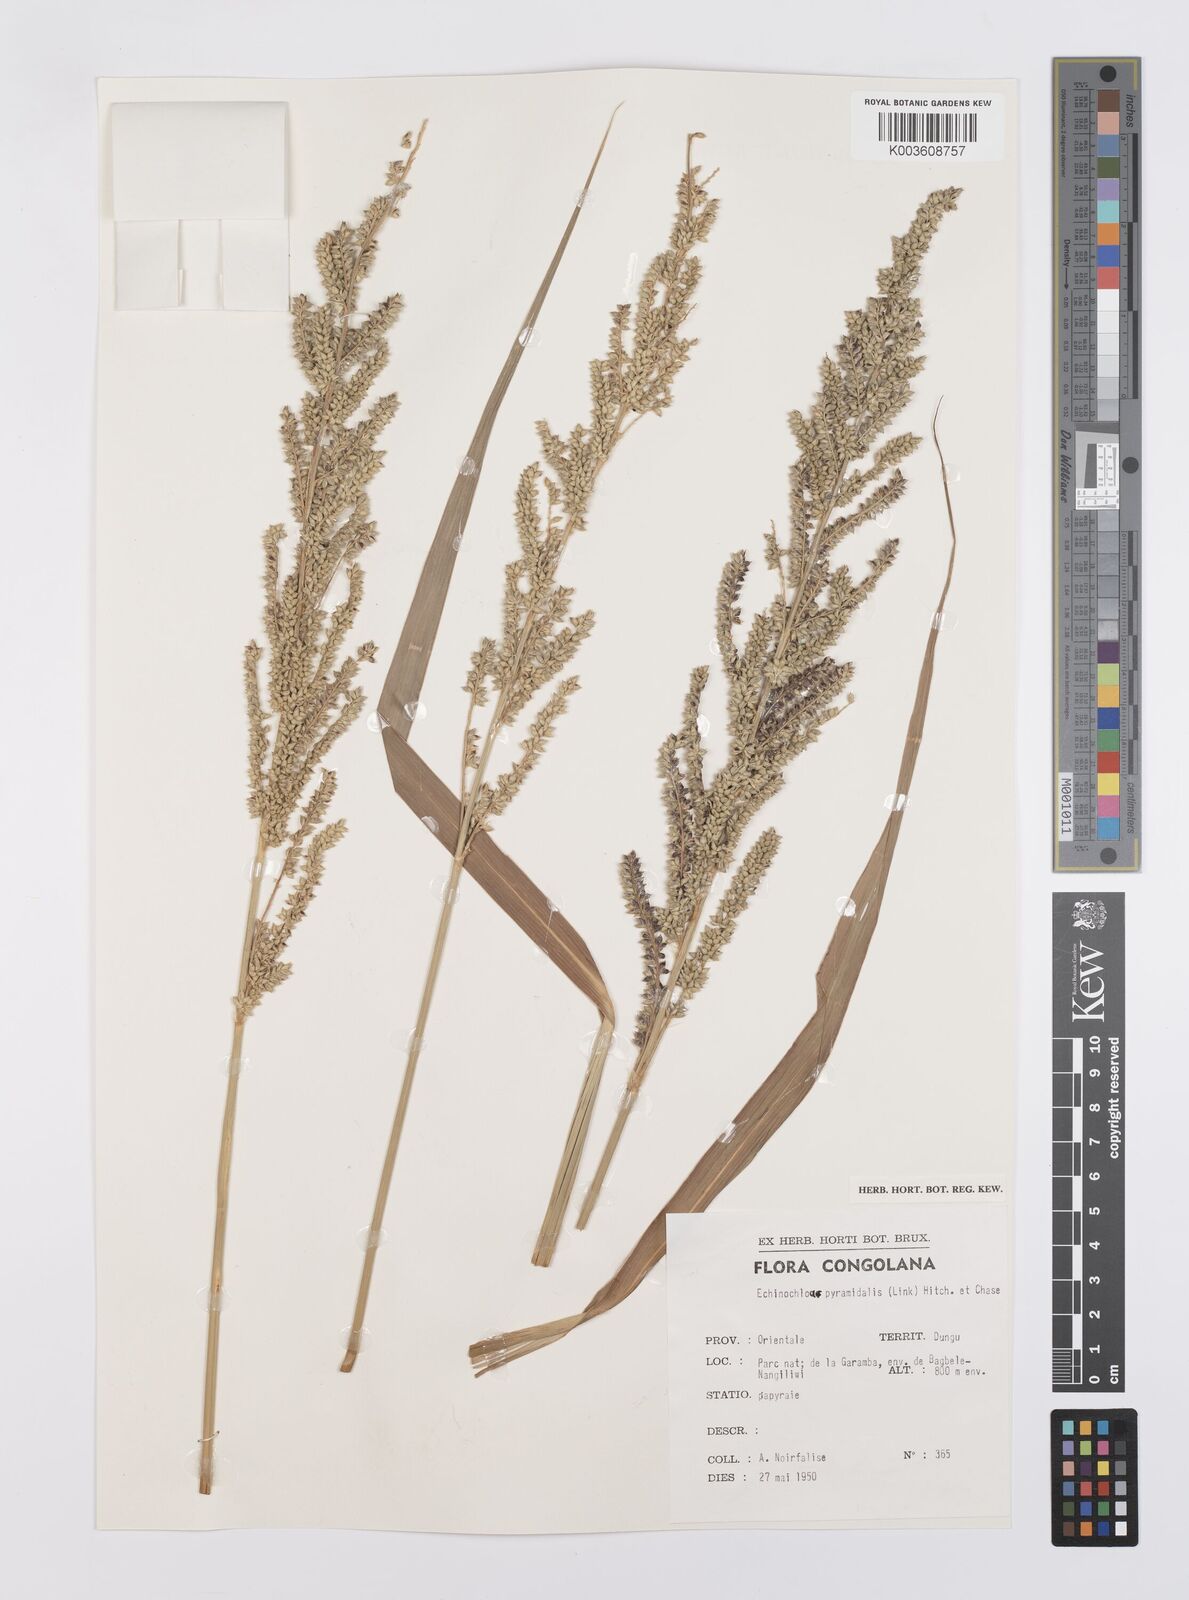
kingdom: Plantae
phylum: Tracheophyta
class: Liliopsida
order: Poales
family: Poaceae
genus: Echinochloa
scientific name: Echinochloa pyramidalis
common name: Antelope grass
